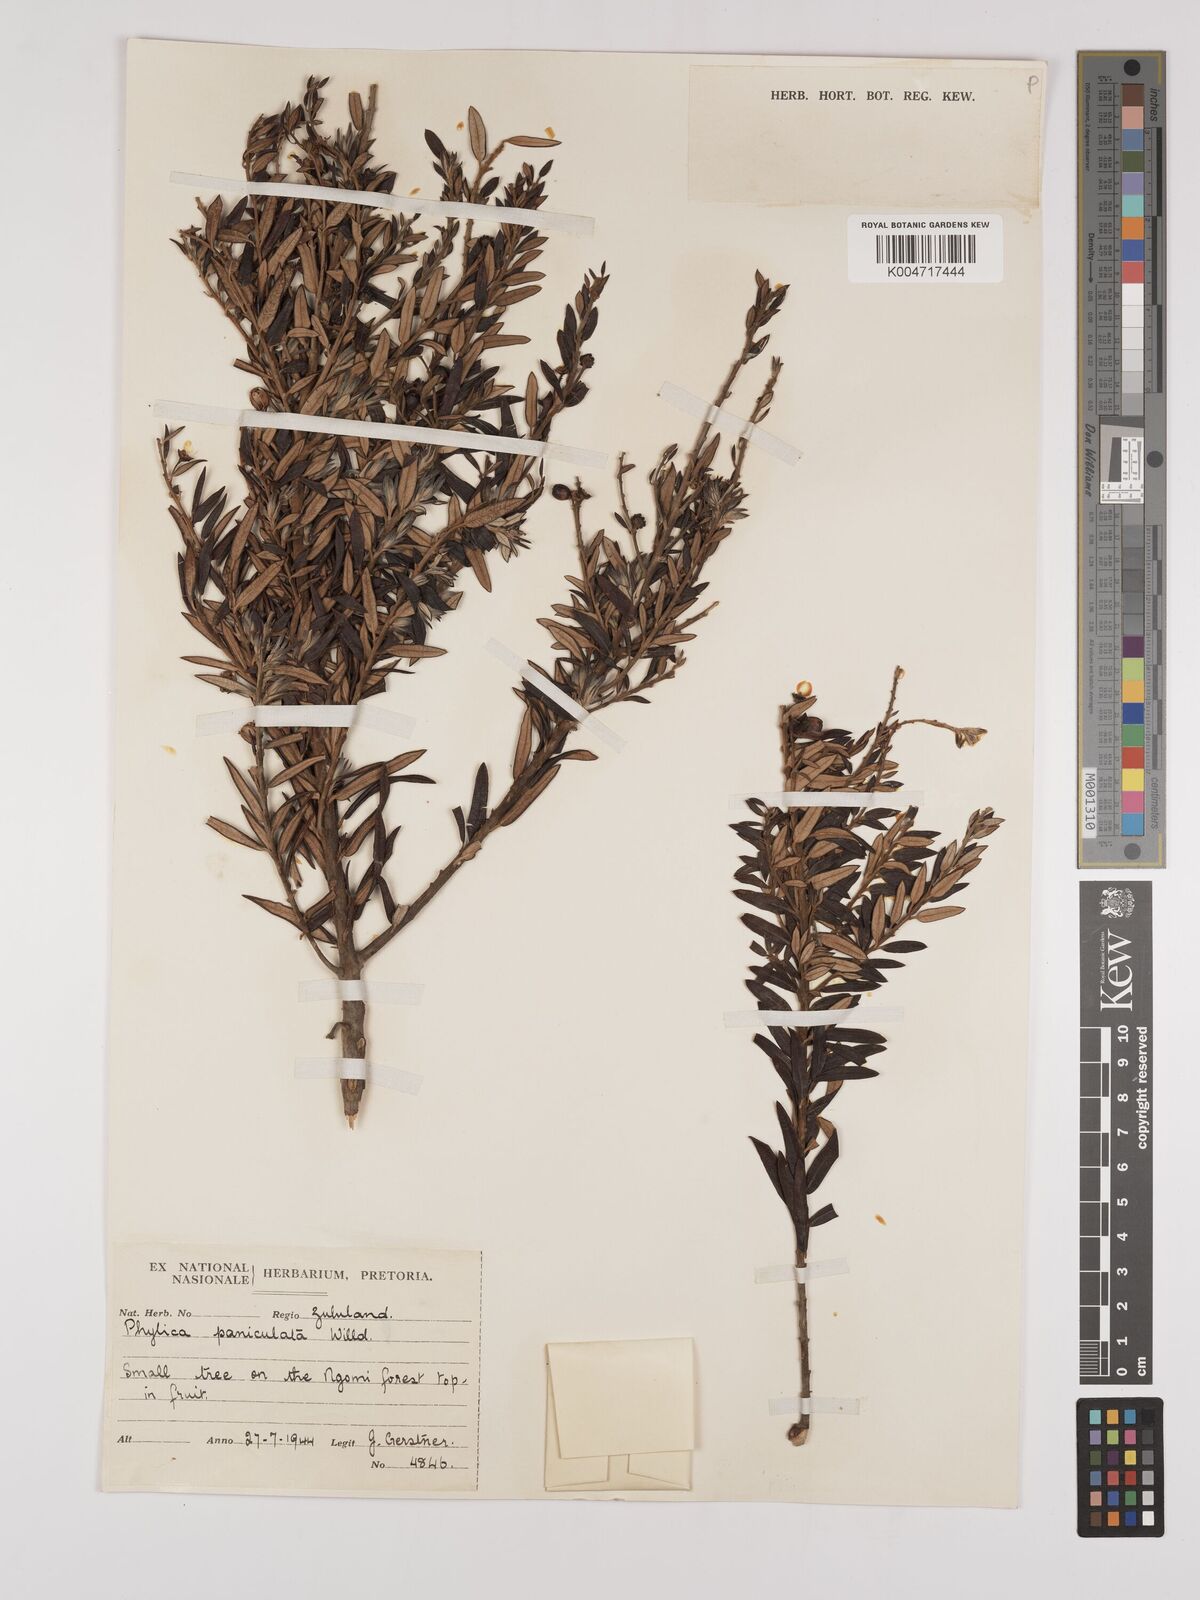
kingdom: Plantae
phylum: Tracheophyta
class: Magnoliopsida
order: Rosales
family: Rhamnaceae
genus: Phylica
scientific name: Phylica paniculata
